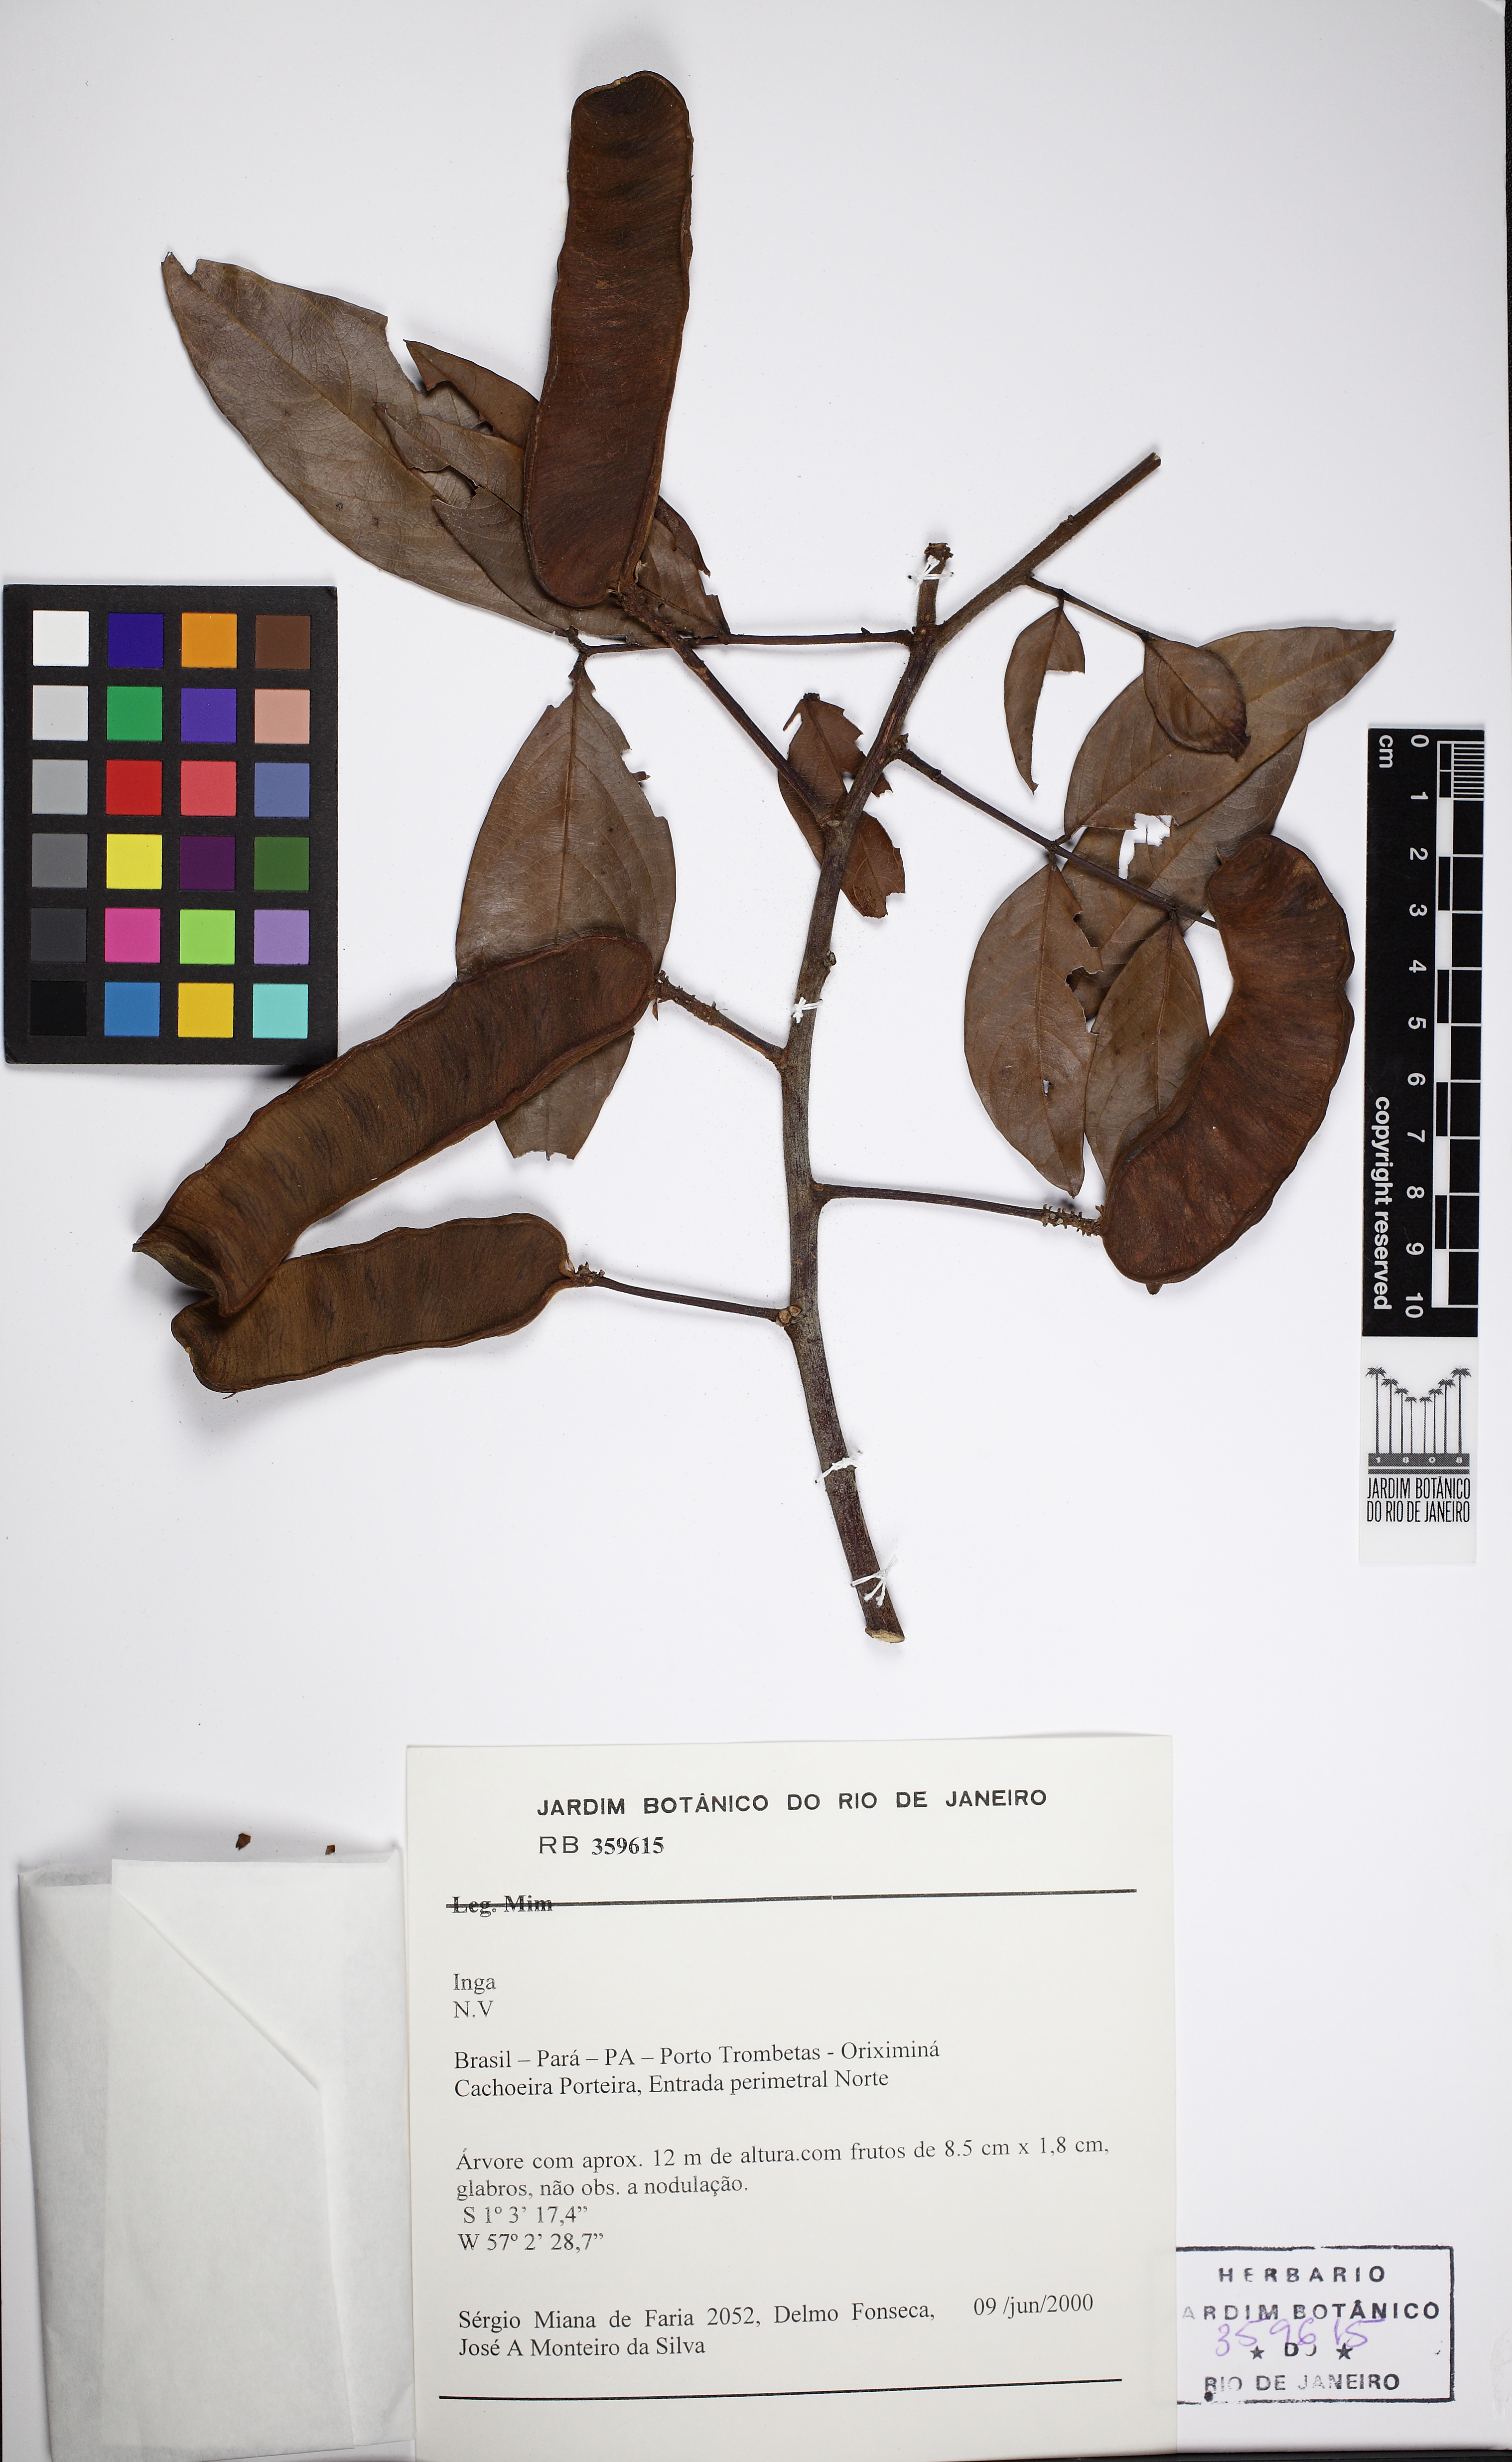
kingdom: Plantae
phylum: Tracheophyta
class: Magnoliopsida
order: Fabales
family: Fabaceae
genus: Inga
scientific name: Inga nobilis
